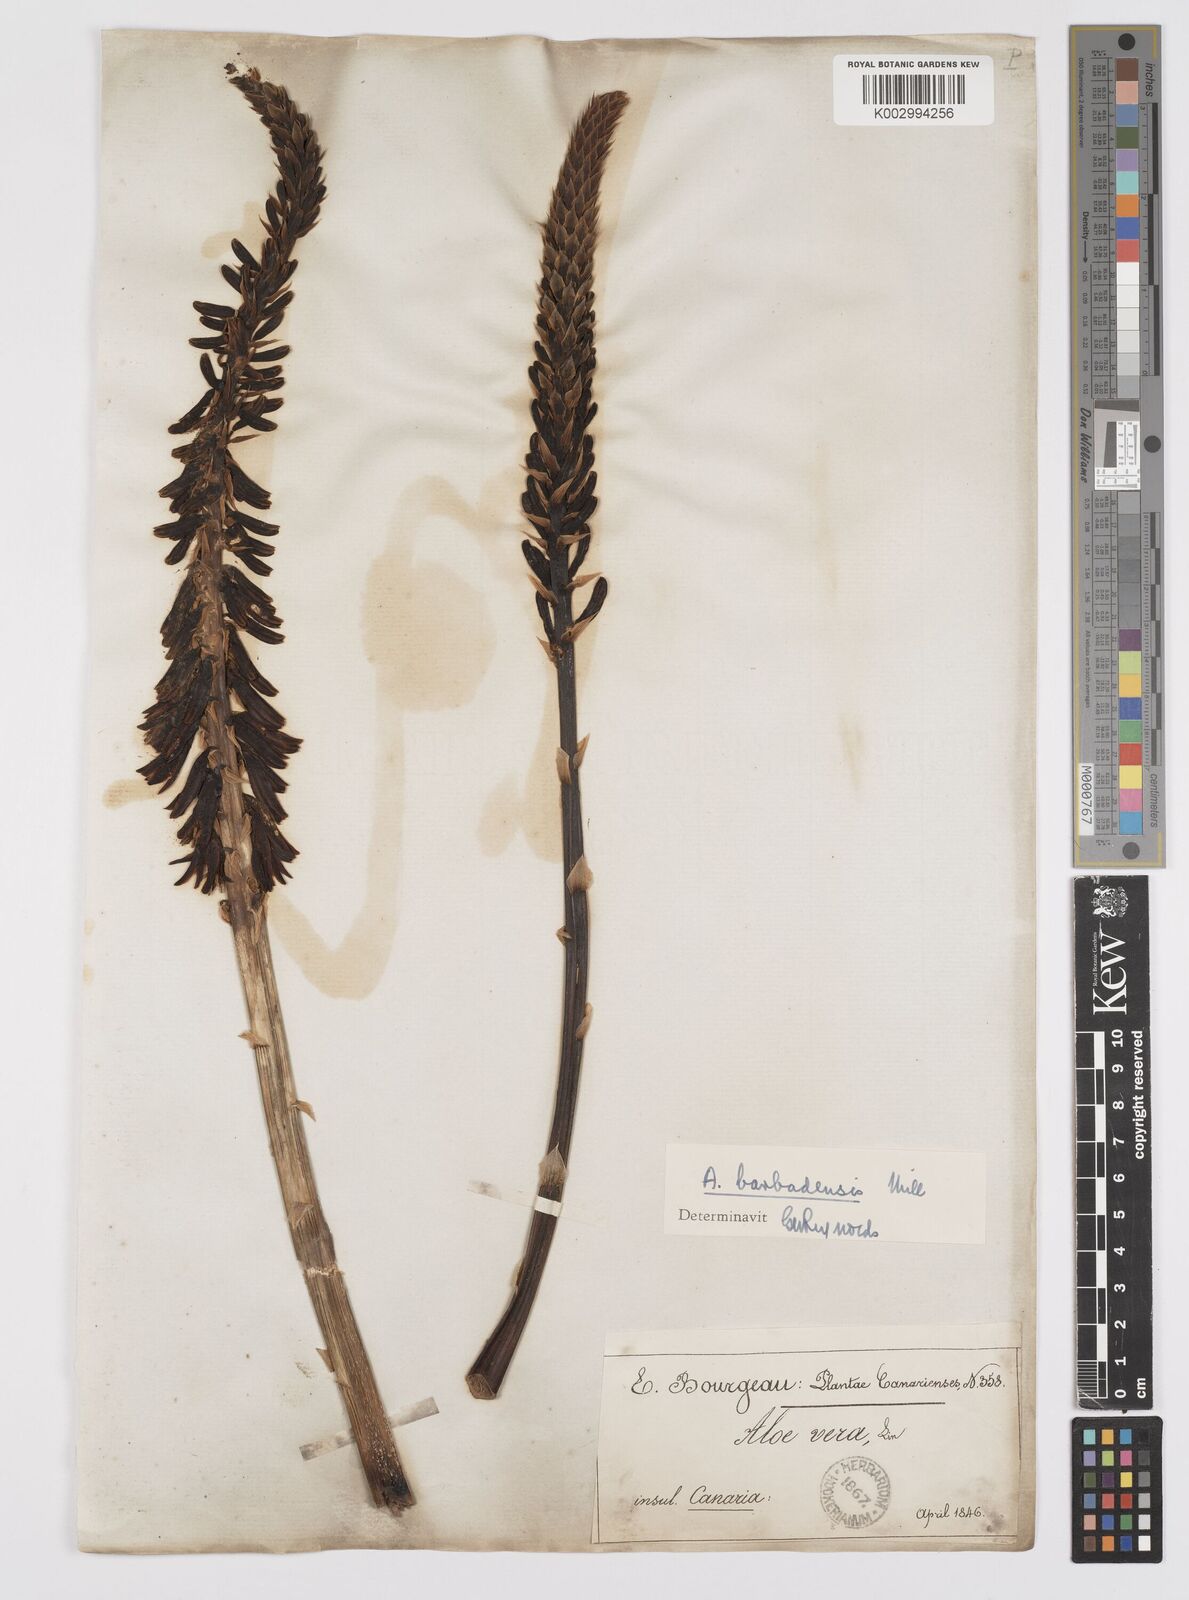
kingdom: Plantae
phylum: Tracheophyta
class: Liliopsida
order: Asparagales
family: Asphodelaceae
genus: Aloe
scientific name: Aloe vera
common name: Barbados aloe
